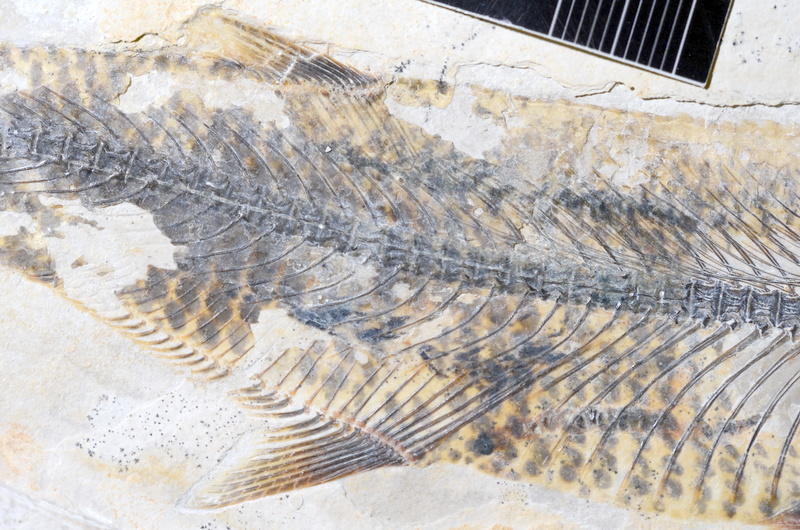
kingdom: Animalia
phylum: Chordata
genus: Thrissops
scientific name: Thrissops formosus
